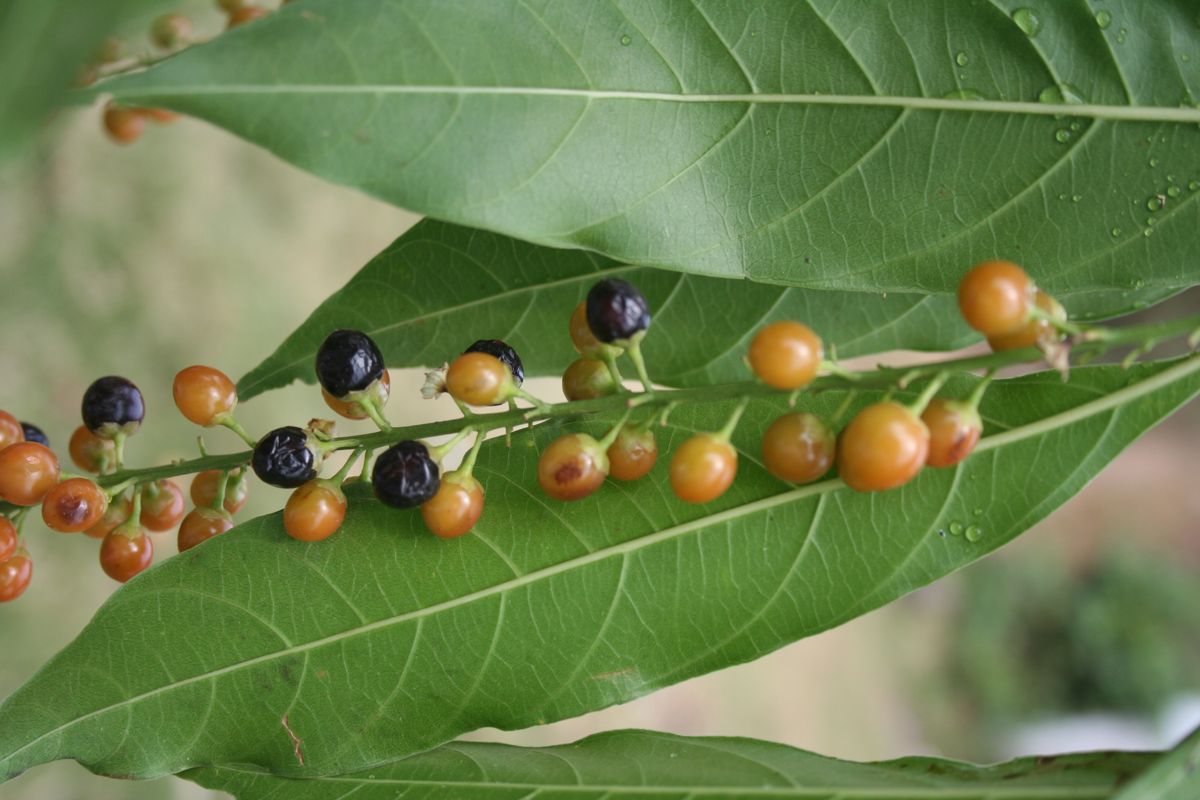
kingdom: Plantae
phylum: Tracheophyta
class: Magnoliopsida
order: Lamiales
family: Verbenaceae
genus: Citharexylum
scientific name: Citharexylum donnell-smithii
